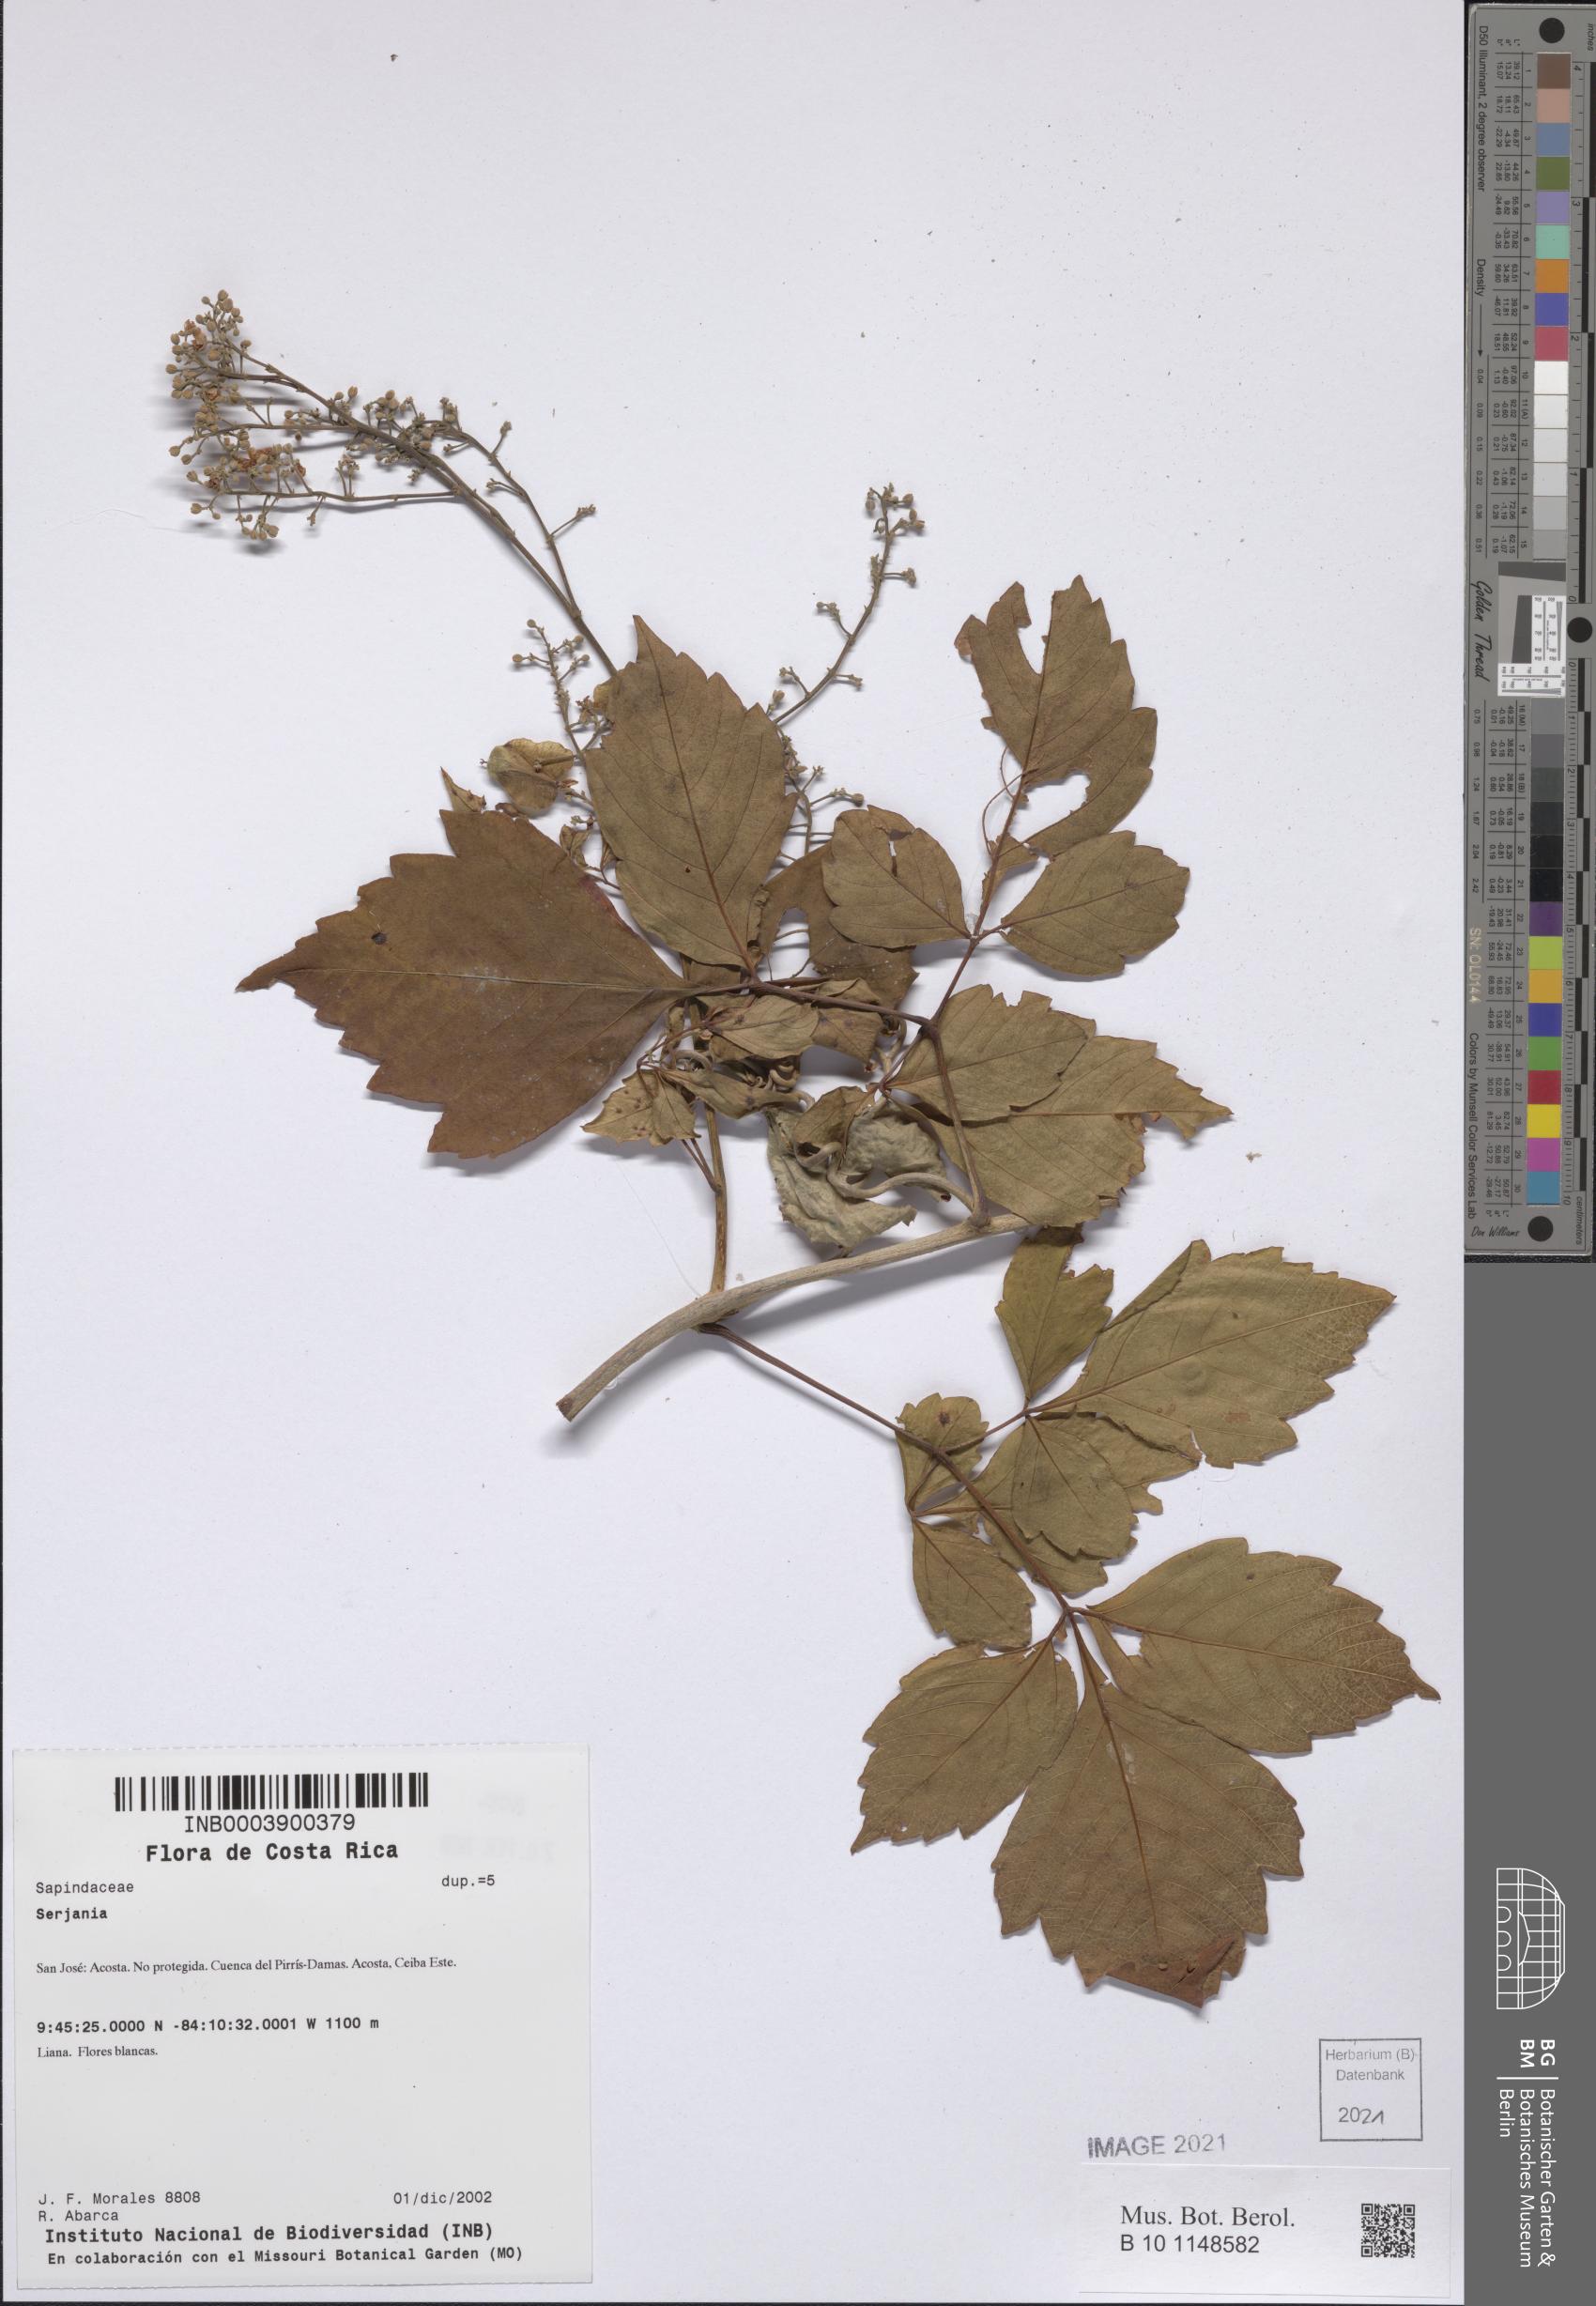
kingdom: Plantae
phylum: Tracheophyta
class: Magnoliopsida
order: Sapindales
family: Sapindaceae
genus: Serjania
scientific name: Serjania triquetra
